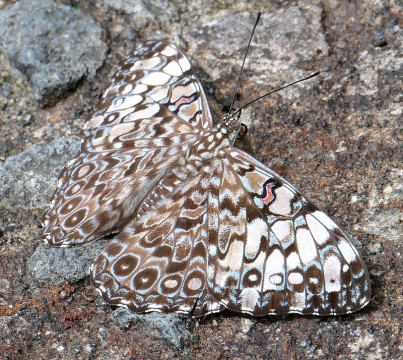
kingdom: Animalia
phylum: Arthropoda
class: Insecta
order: Lepidoptera
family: Nymphalidae
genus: Hamadryas
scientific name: Hamadryas feronia
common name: Variable Cracker
